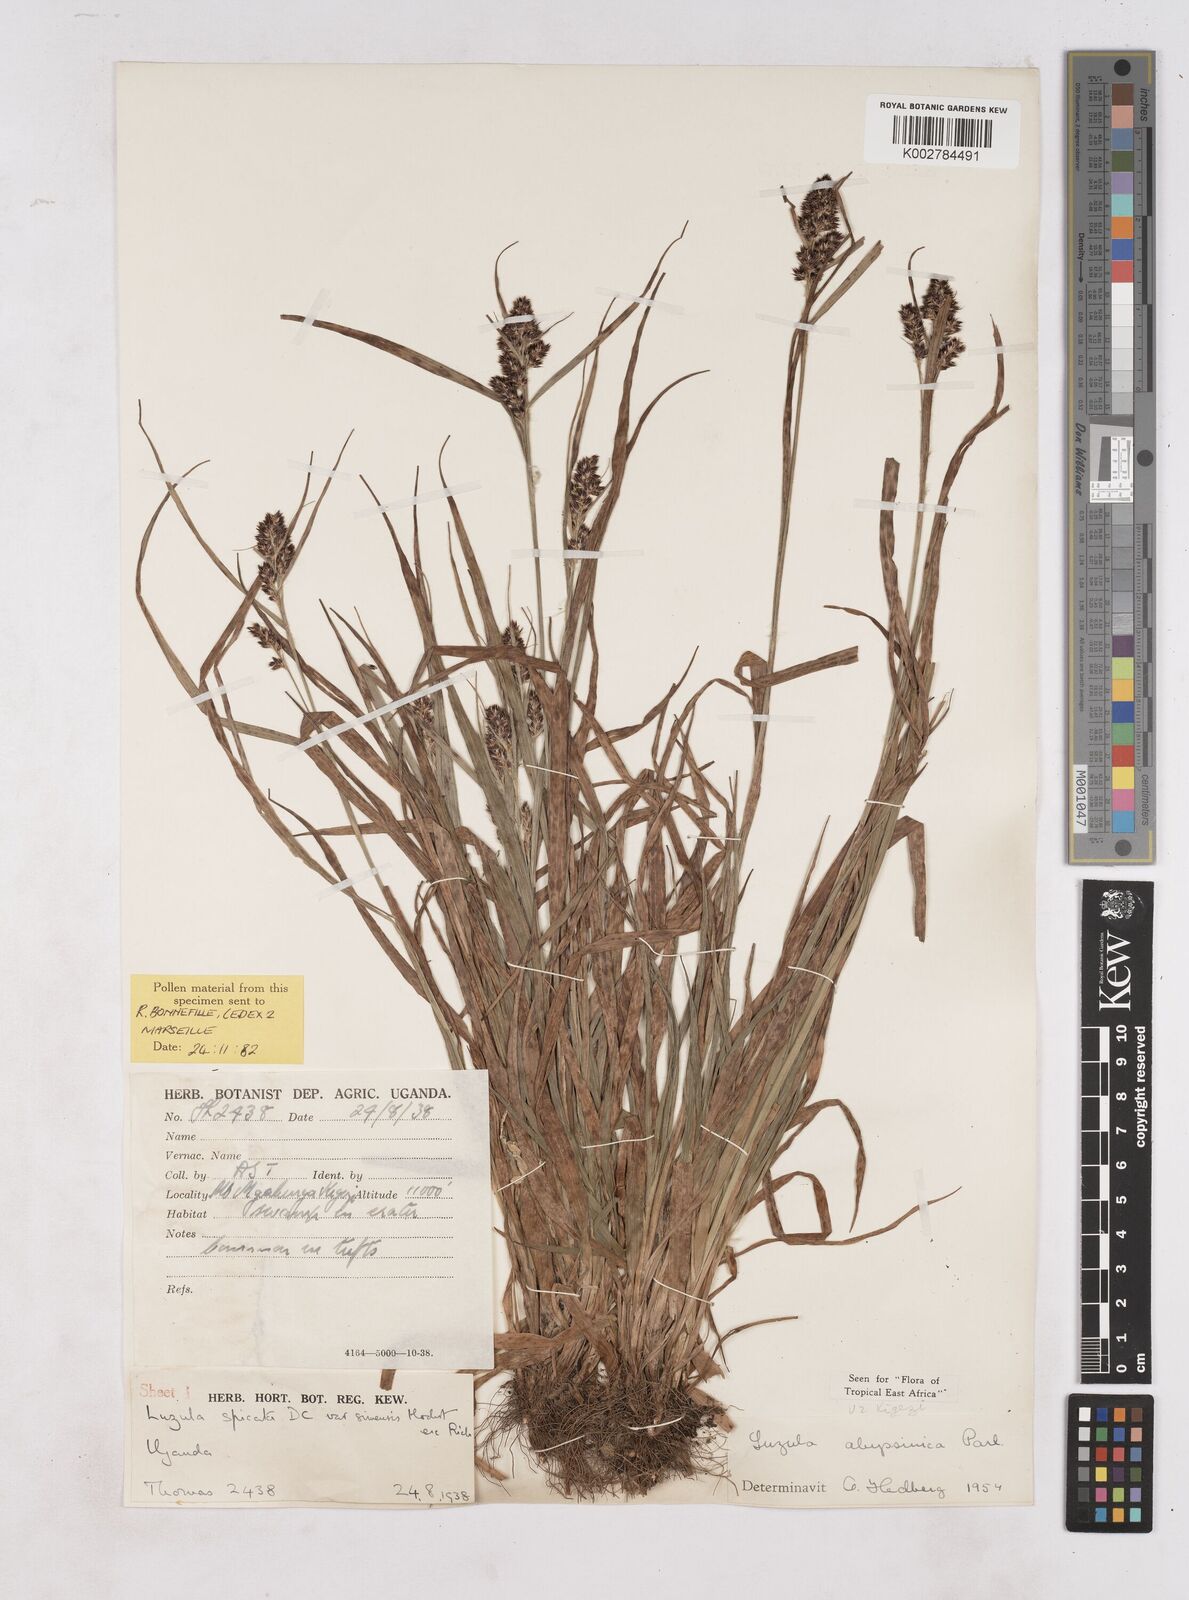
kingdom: Plantae
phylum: Tracheophyta
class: Liliopsida
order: Poales
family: Juncaceae
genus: Luzula
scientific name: Luzula abyssinica
